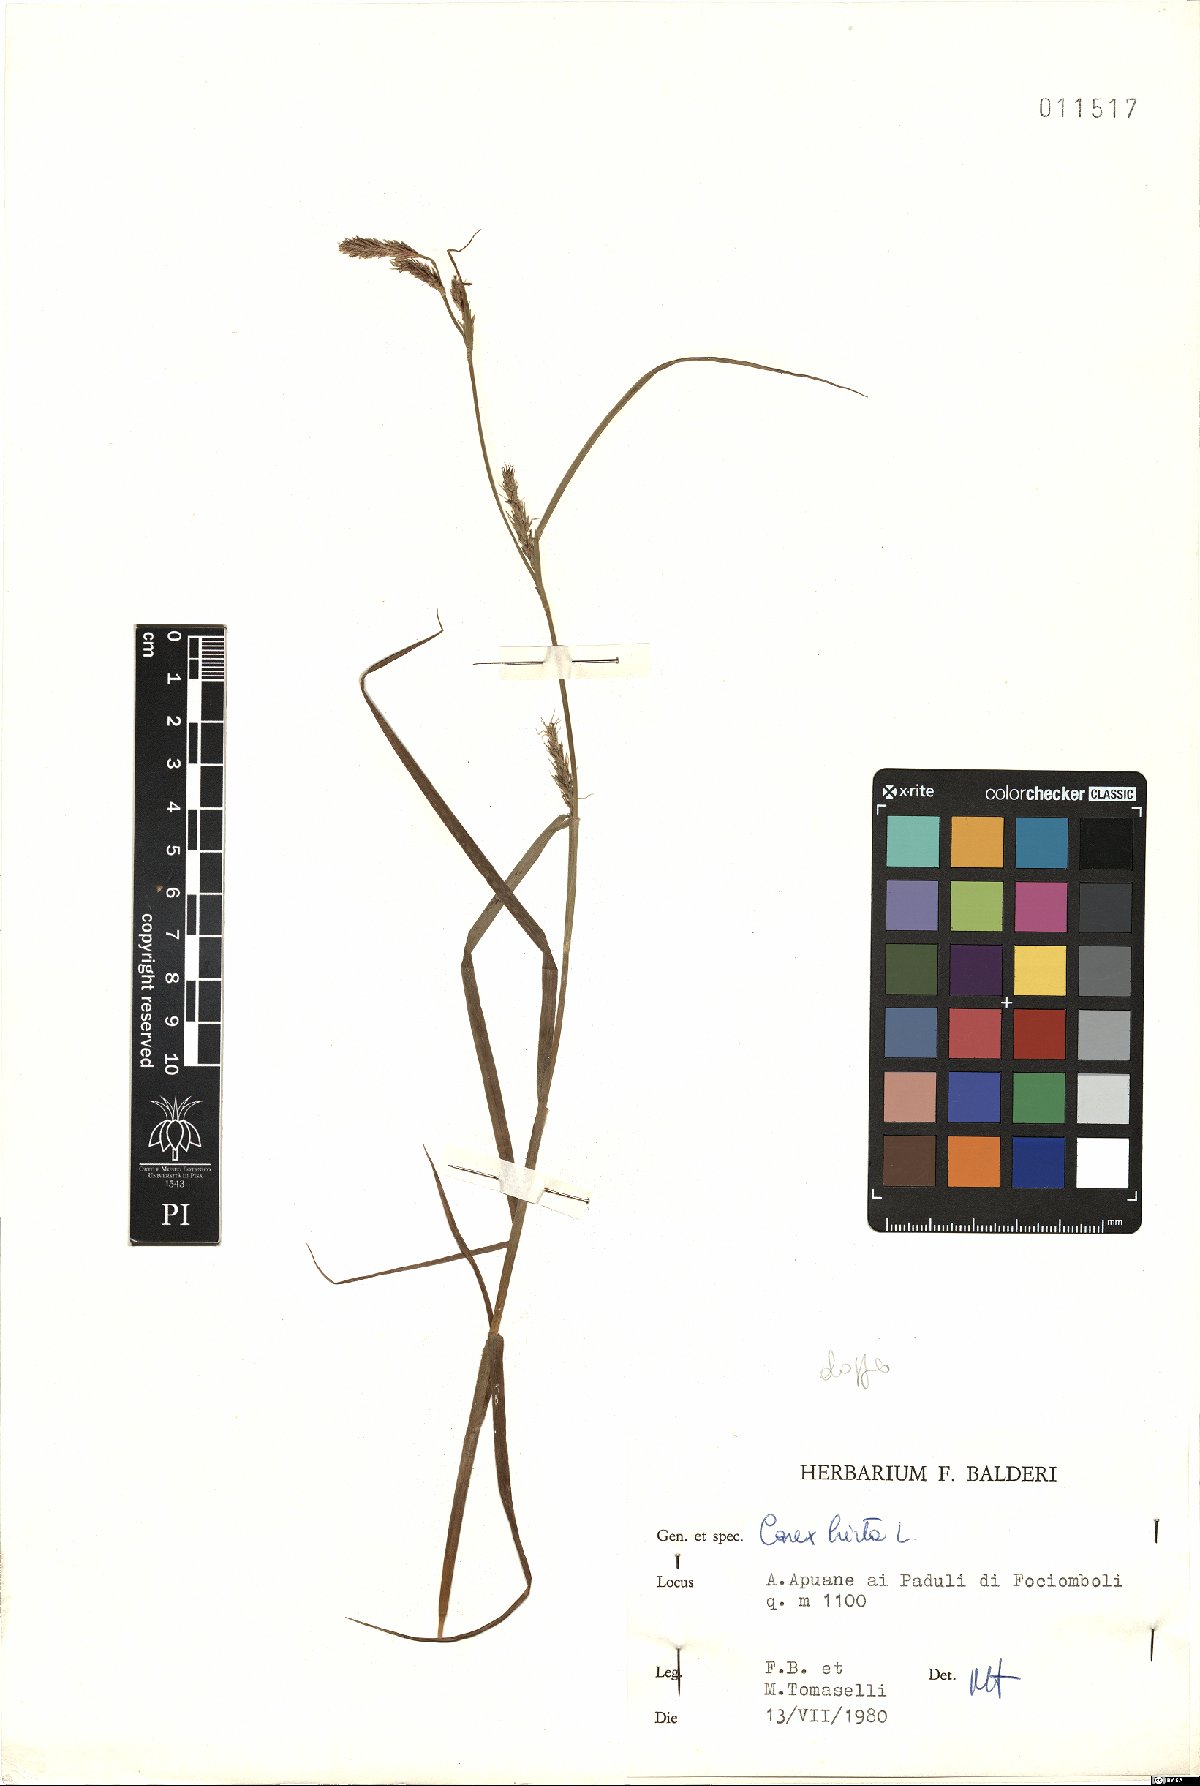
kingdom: Plantae
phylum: Tracheophyta
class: Liliopsida
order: Poales
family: Cyperaceae
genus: Carex
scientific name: Carex hirta
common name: Hairy sedge
